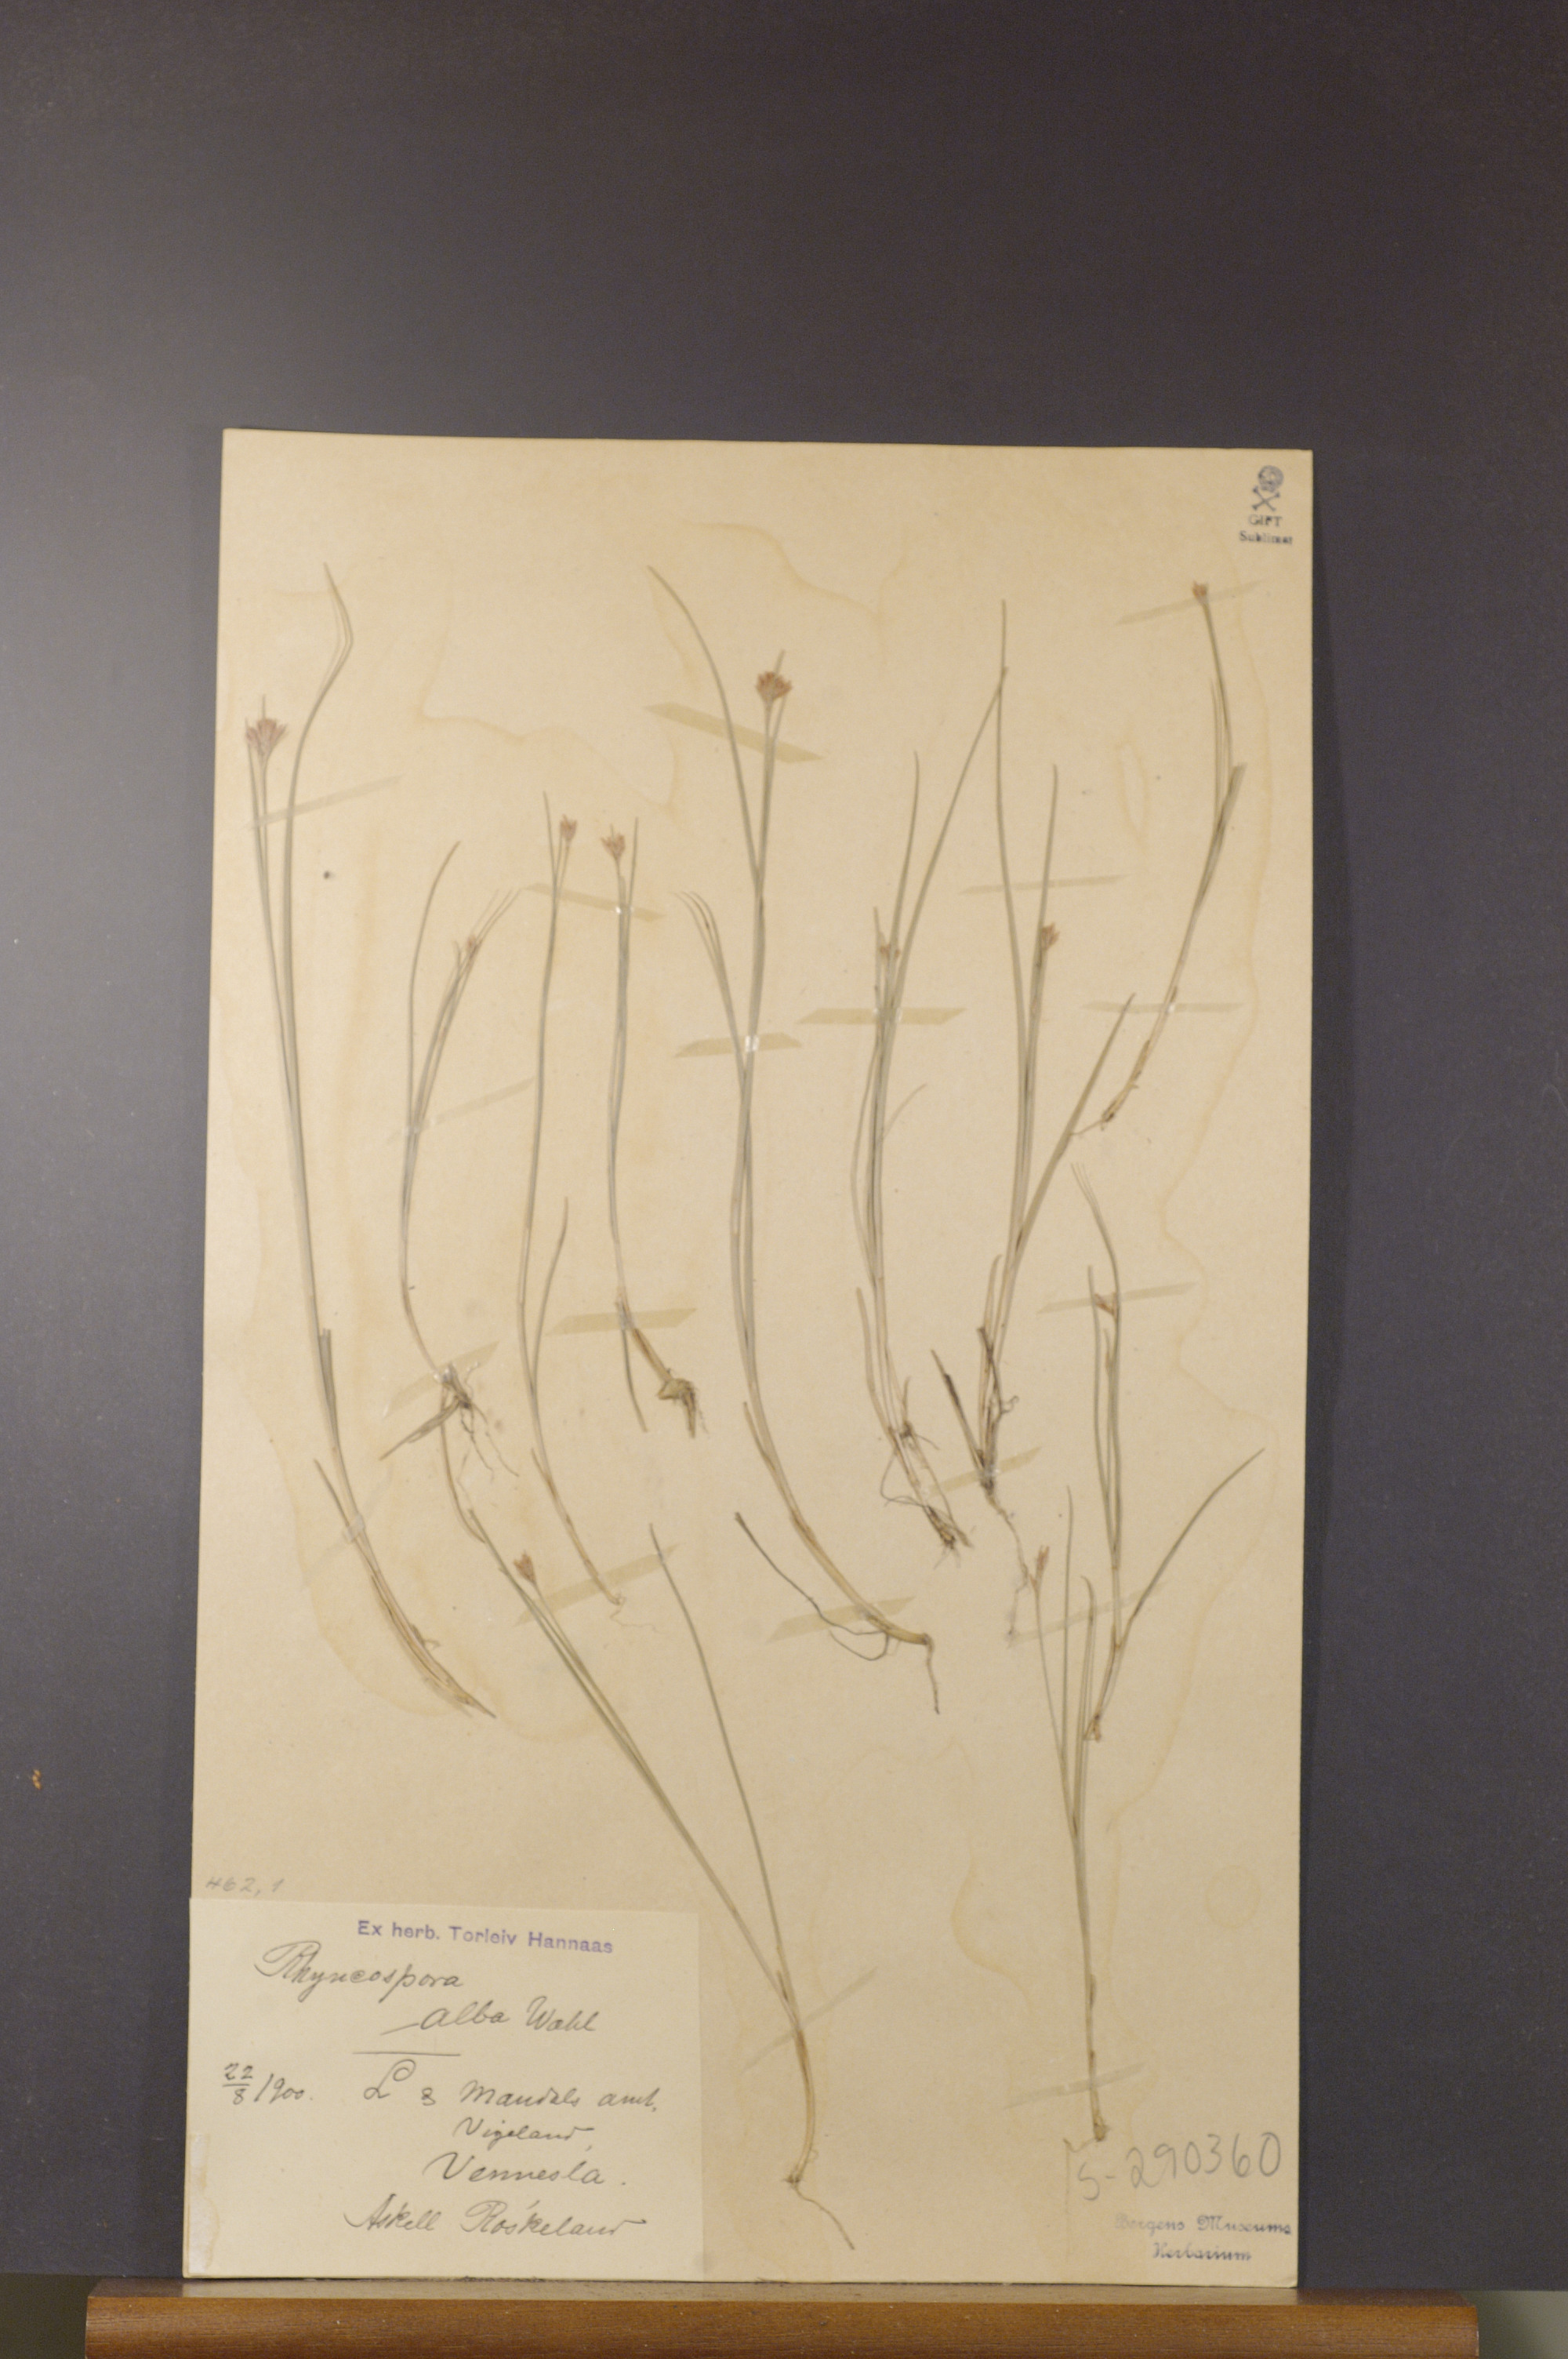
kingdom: Plantae
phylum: Tracheophyta
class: Liliopsida
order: Poales
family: Cyperaceae
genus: Rhynchospora
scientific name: Rhynchospora alba
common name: White beak-sedge
